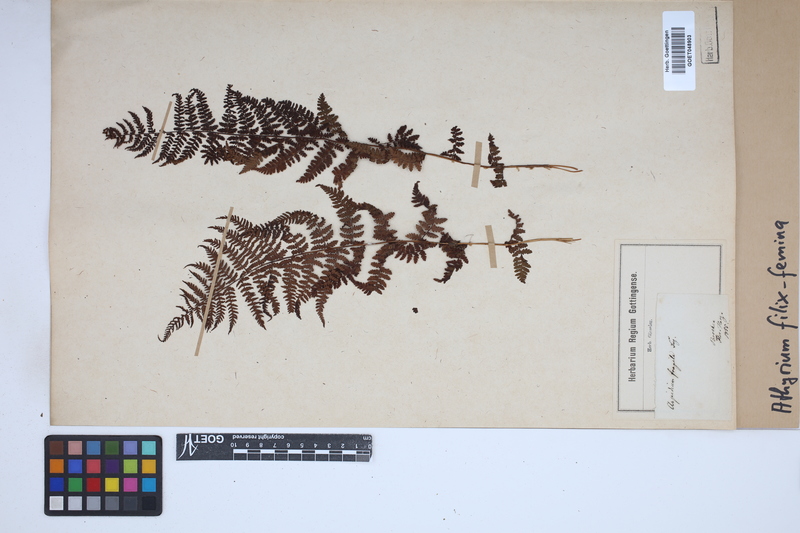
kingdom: Plantae
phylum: Tracheophyta
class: Polypodiopsida
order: Polypodiales
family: Athyriaceae
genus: Athyrium
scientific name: Athyrium filix-femina
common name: Lady fern
